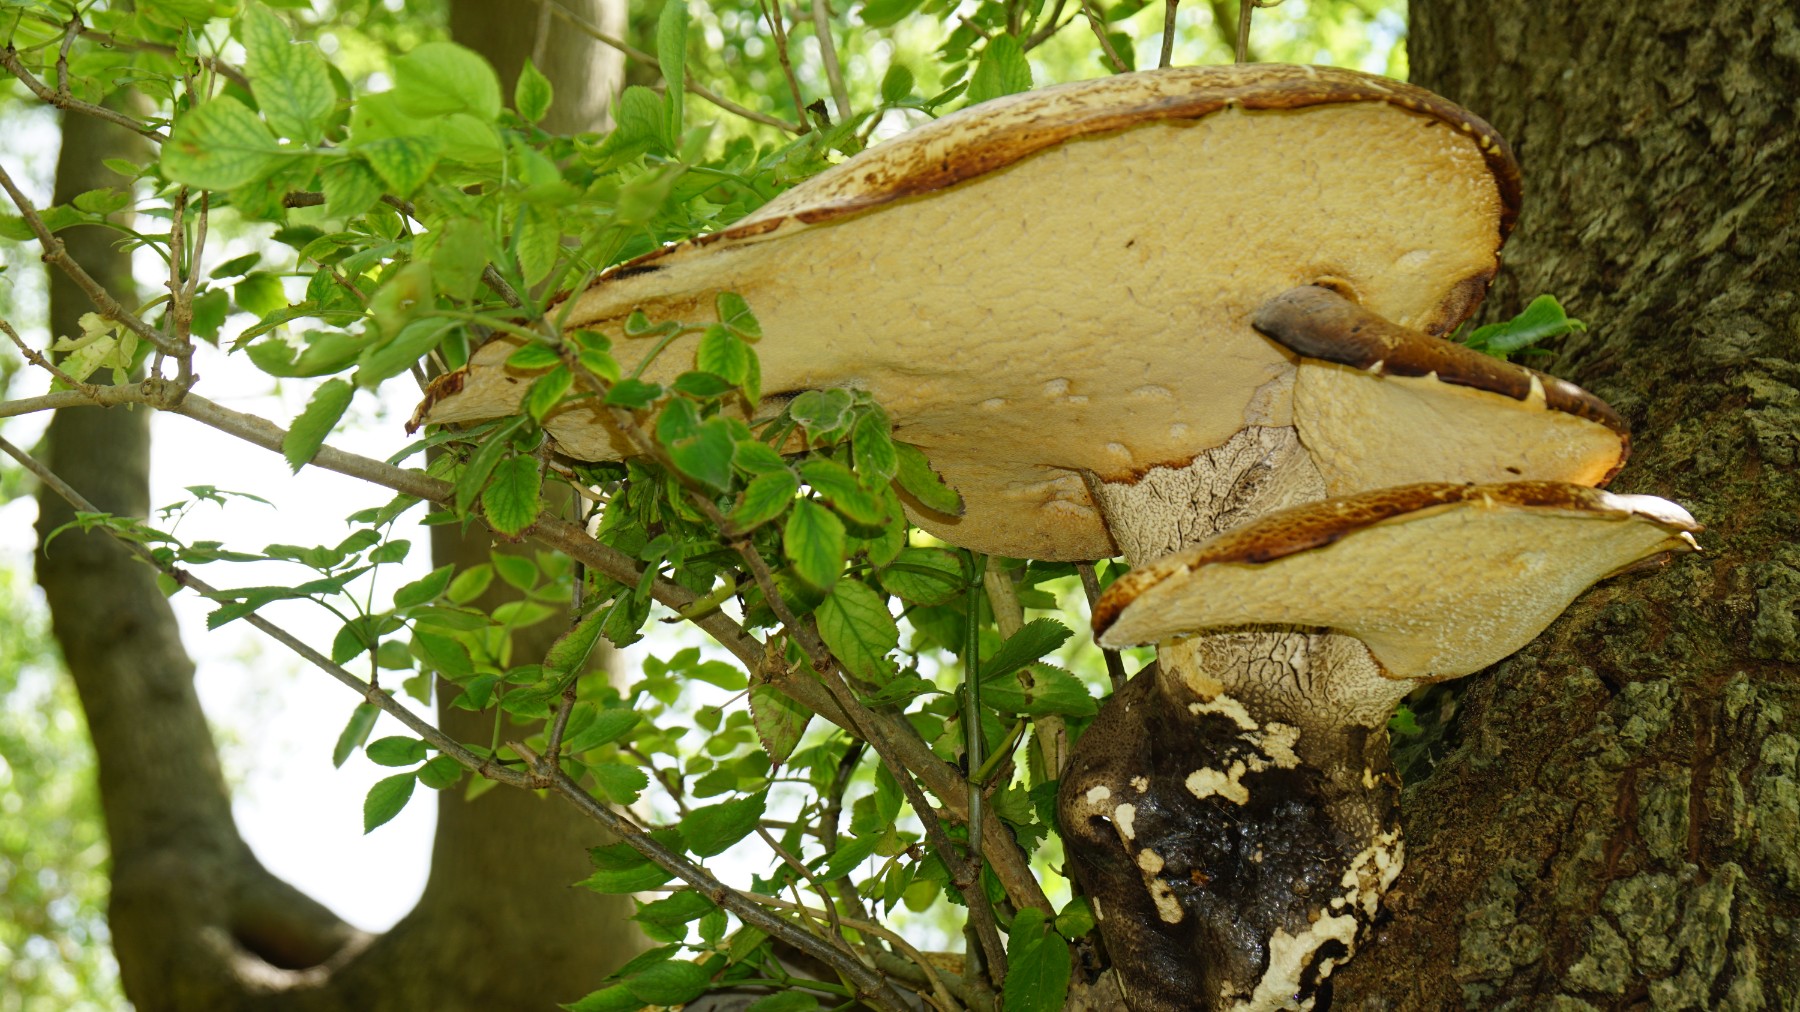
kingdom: Fungi
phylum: Basidiomycota
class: Agaricomycetes
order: Polyporales
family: Polyporaceae
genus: Cerioporus
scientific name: Cerioporus squamosus
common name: skællet stilkporesvamp
